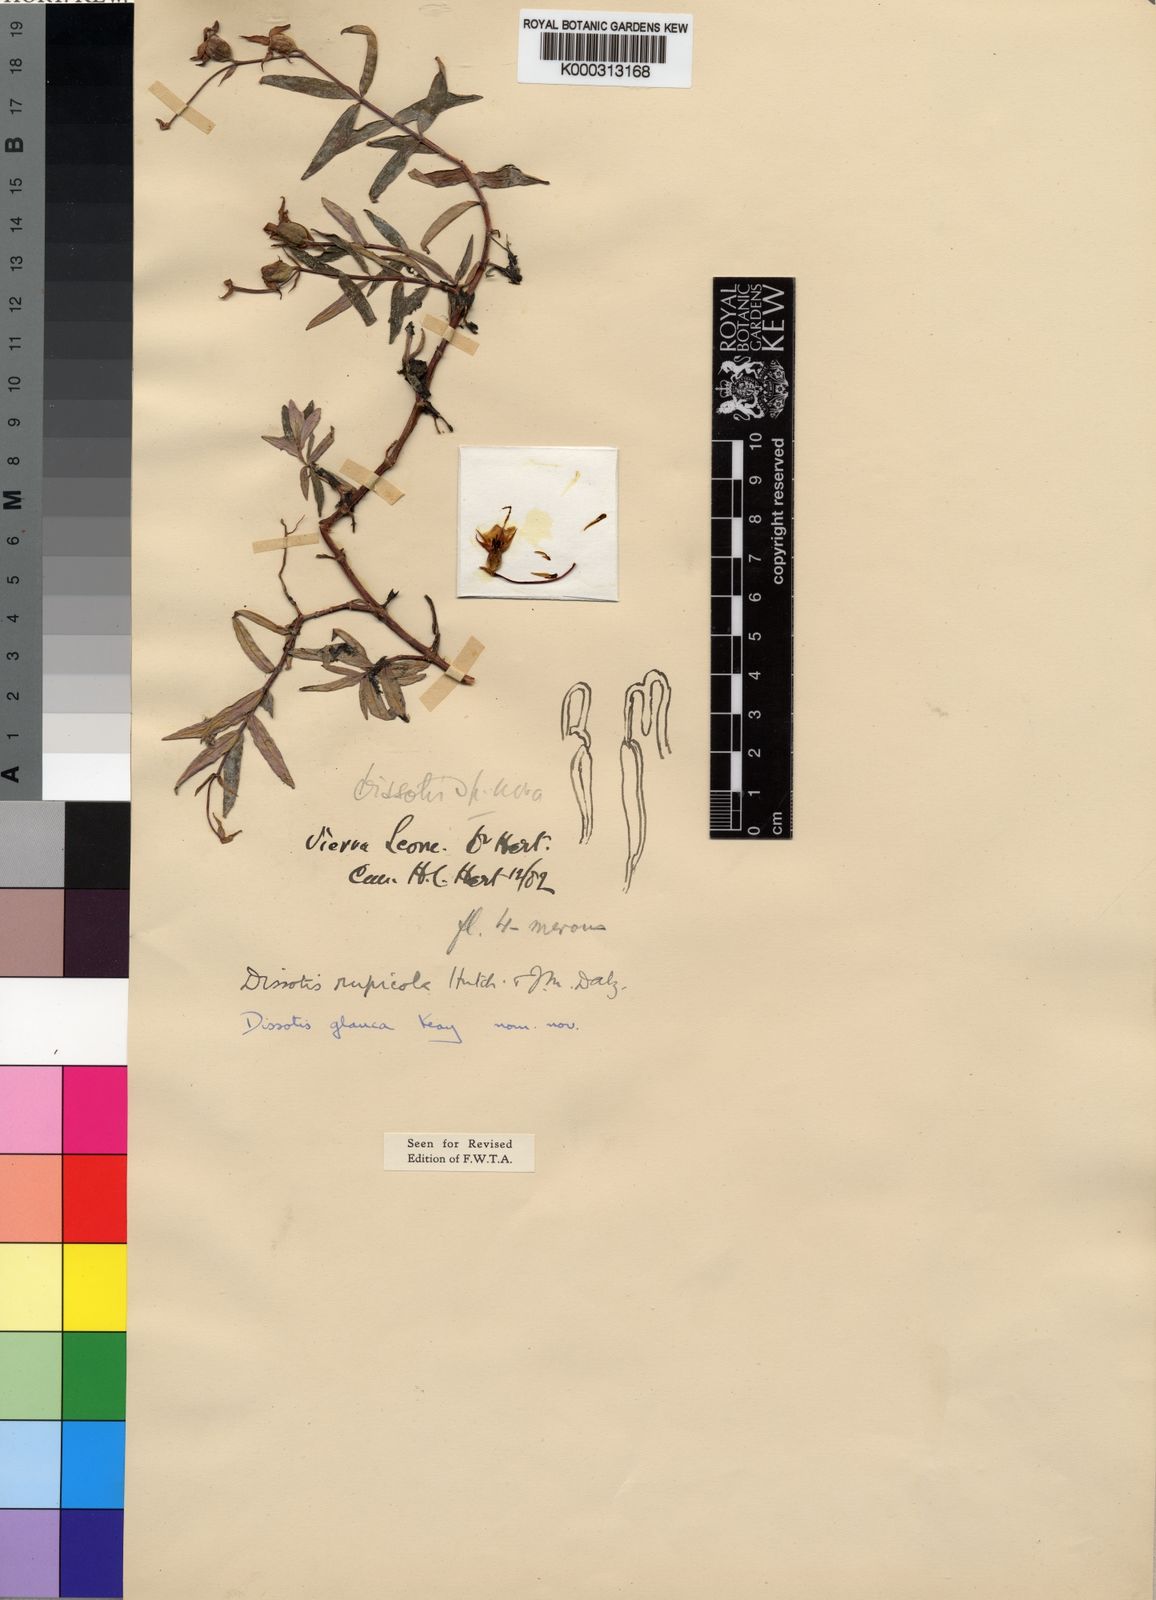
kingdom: Plantae
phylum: Tracheophyta
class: Magnoliopsida
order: Myrtales
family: Melastomataceae
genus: Heterotis
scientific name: Heterotis
